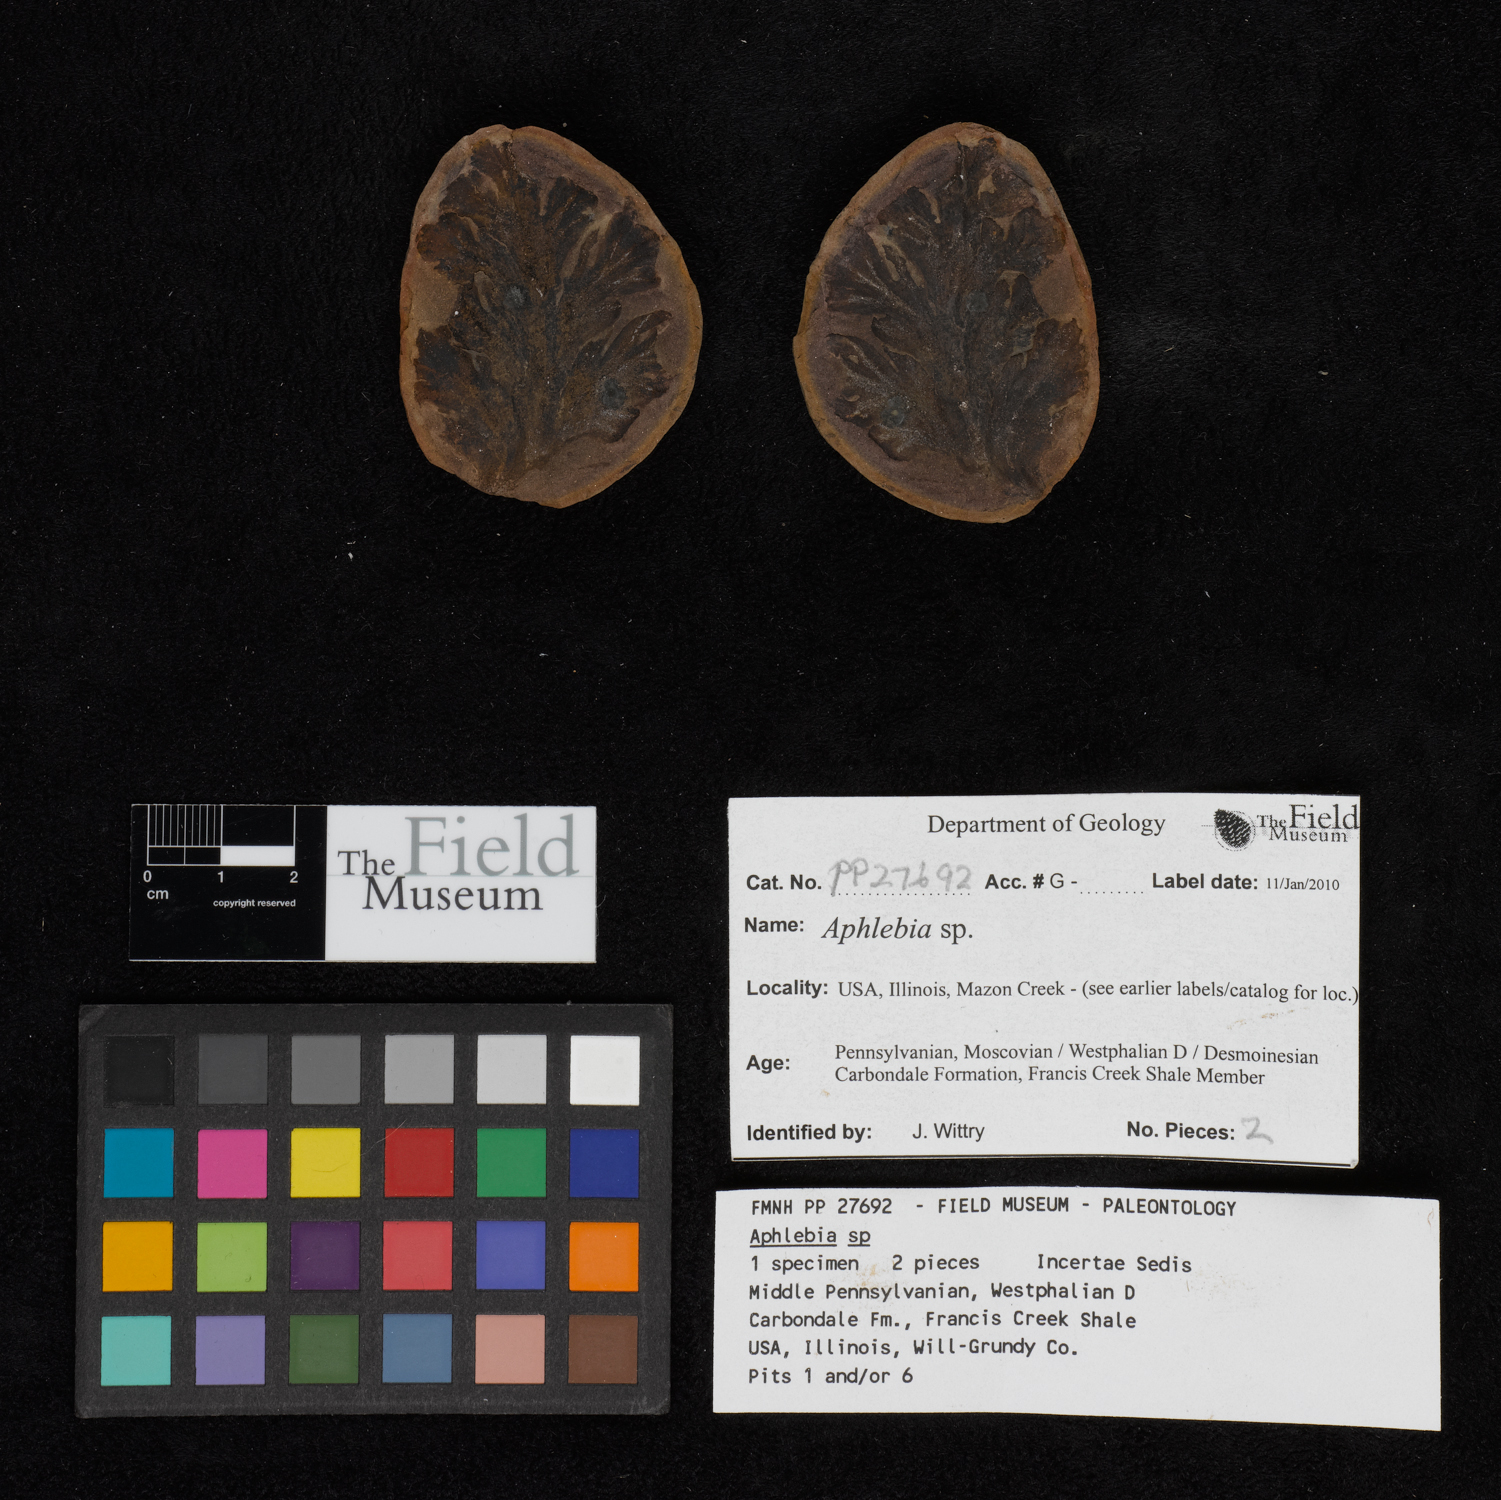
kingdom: Plantae
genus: Rhacophyllum
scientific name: Rhacophyllum
